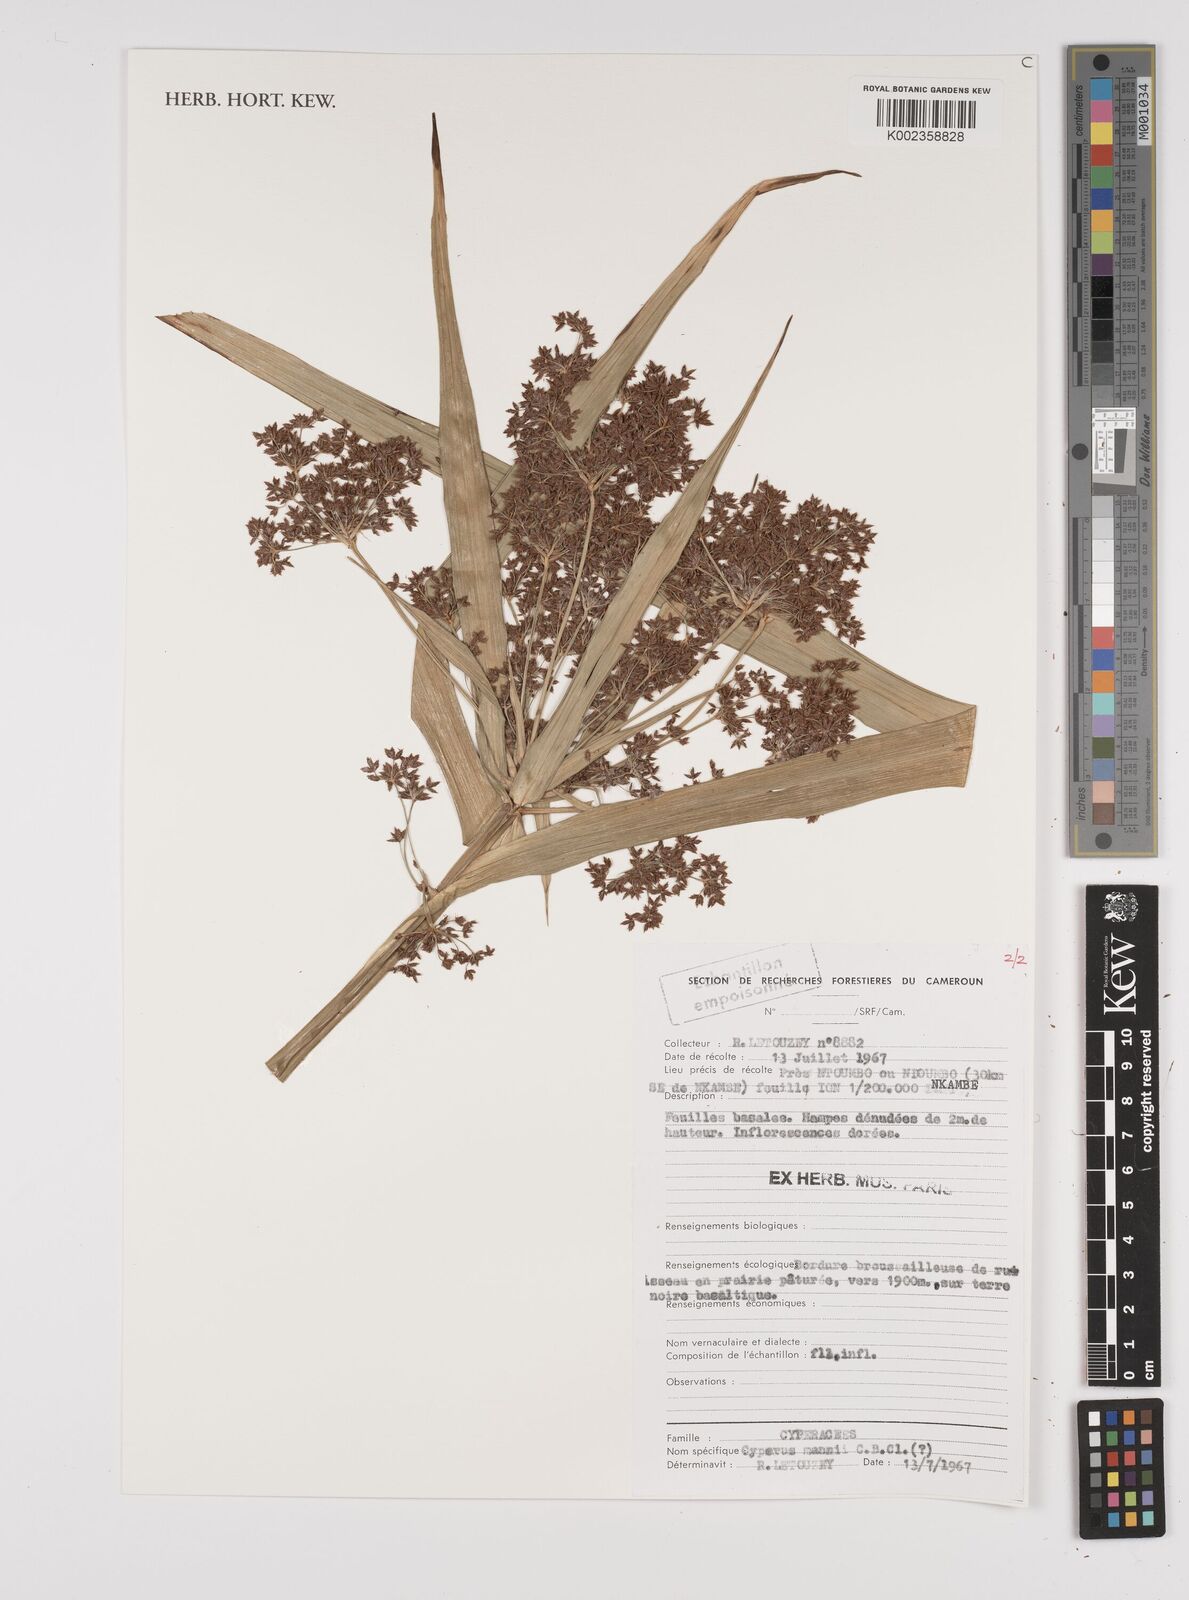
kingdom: Plantae
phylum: Tracheophyta
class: Liliopsida
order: Poales
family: Cyperaceae
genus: Cyperus
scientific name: Cyperus baronii
